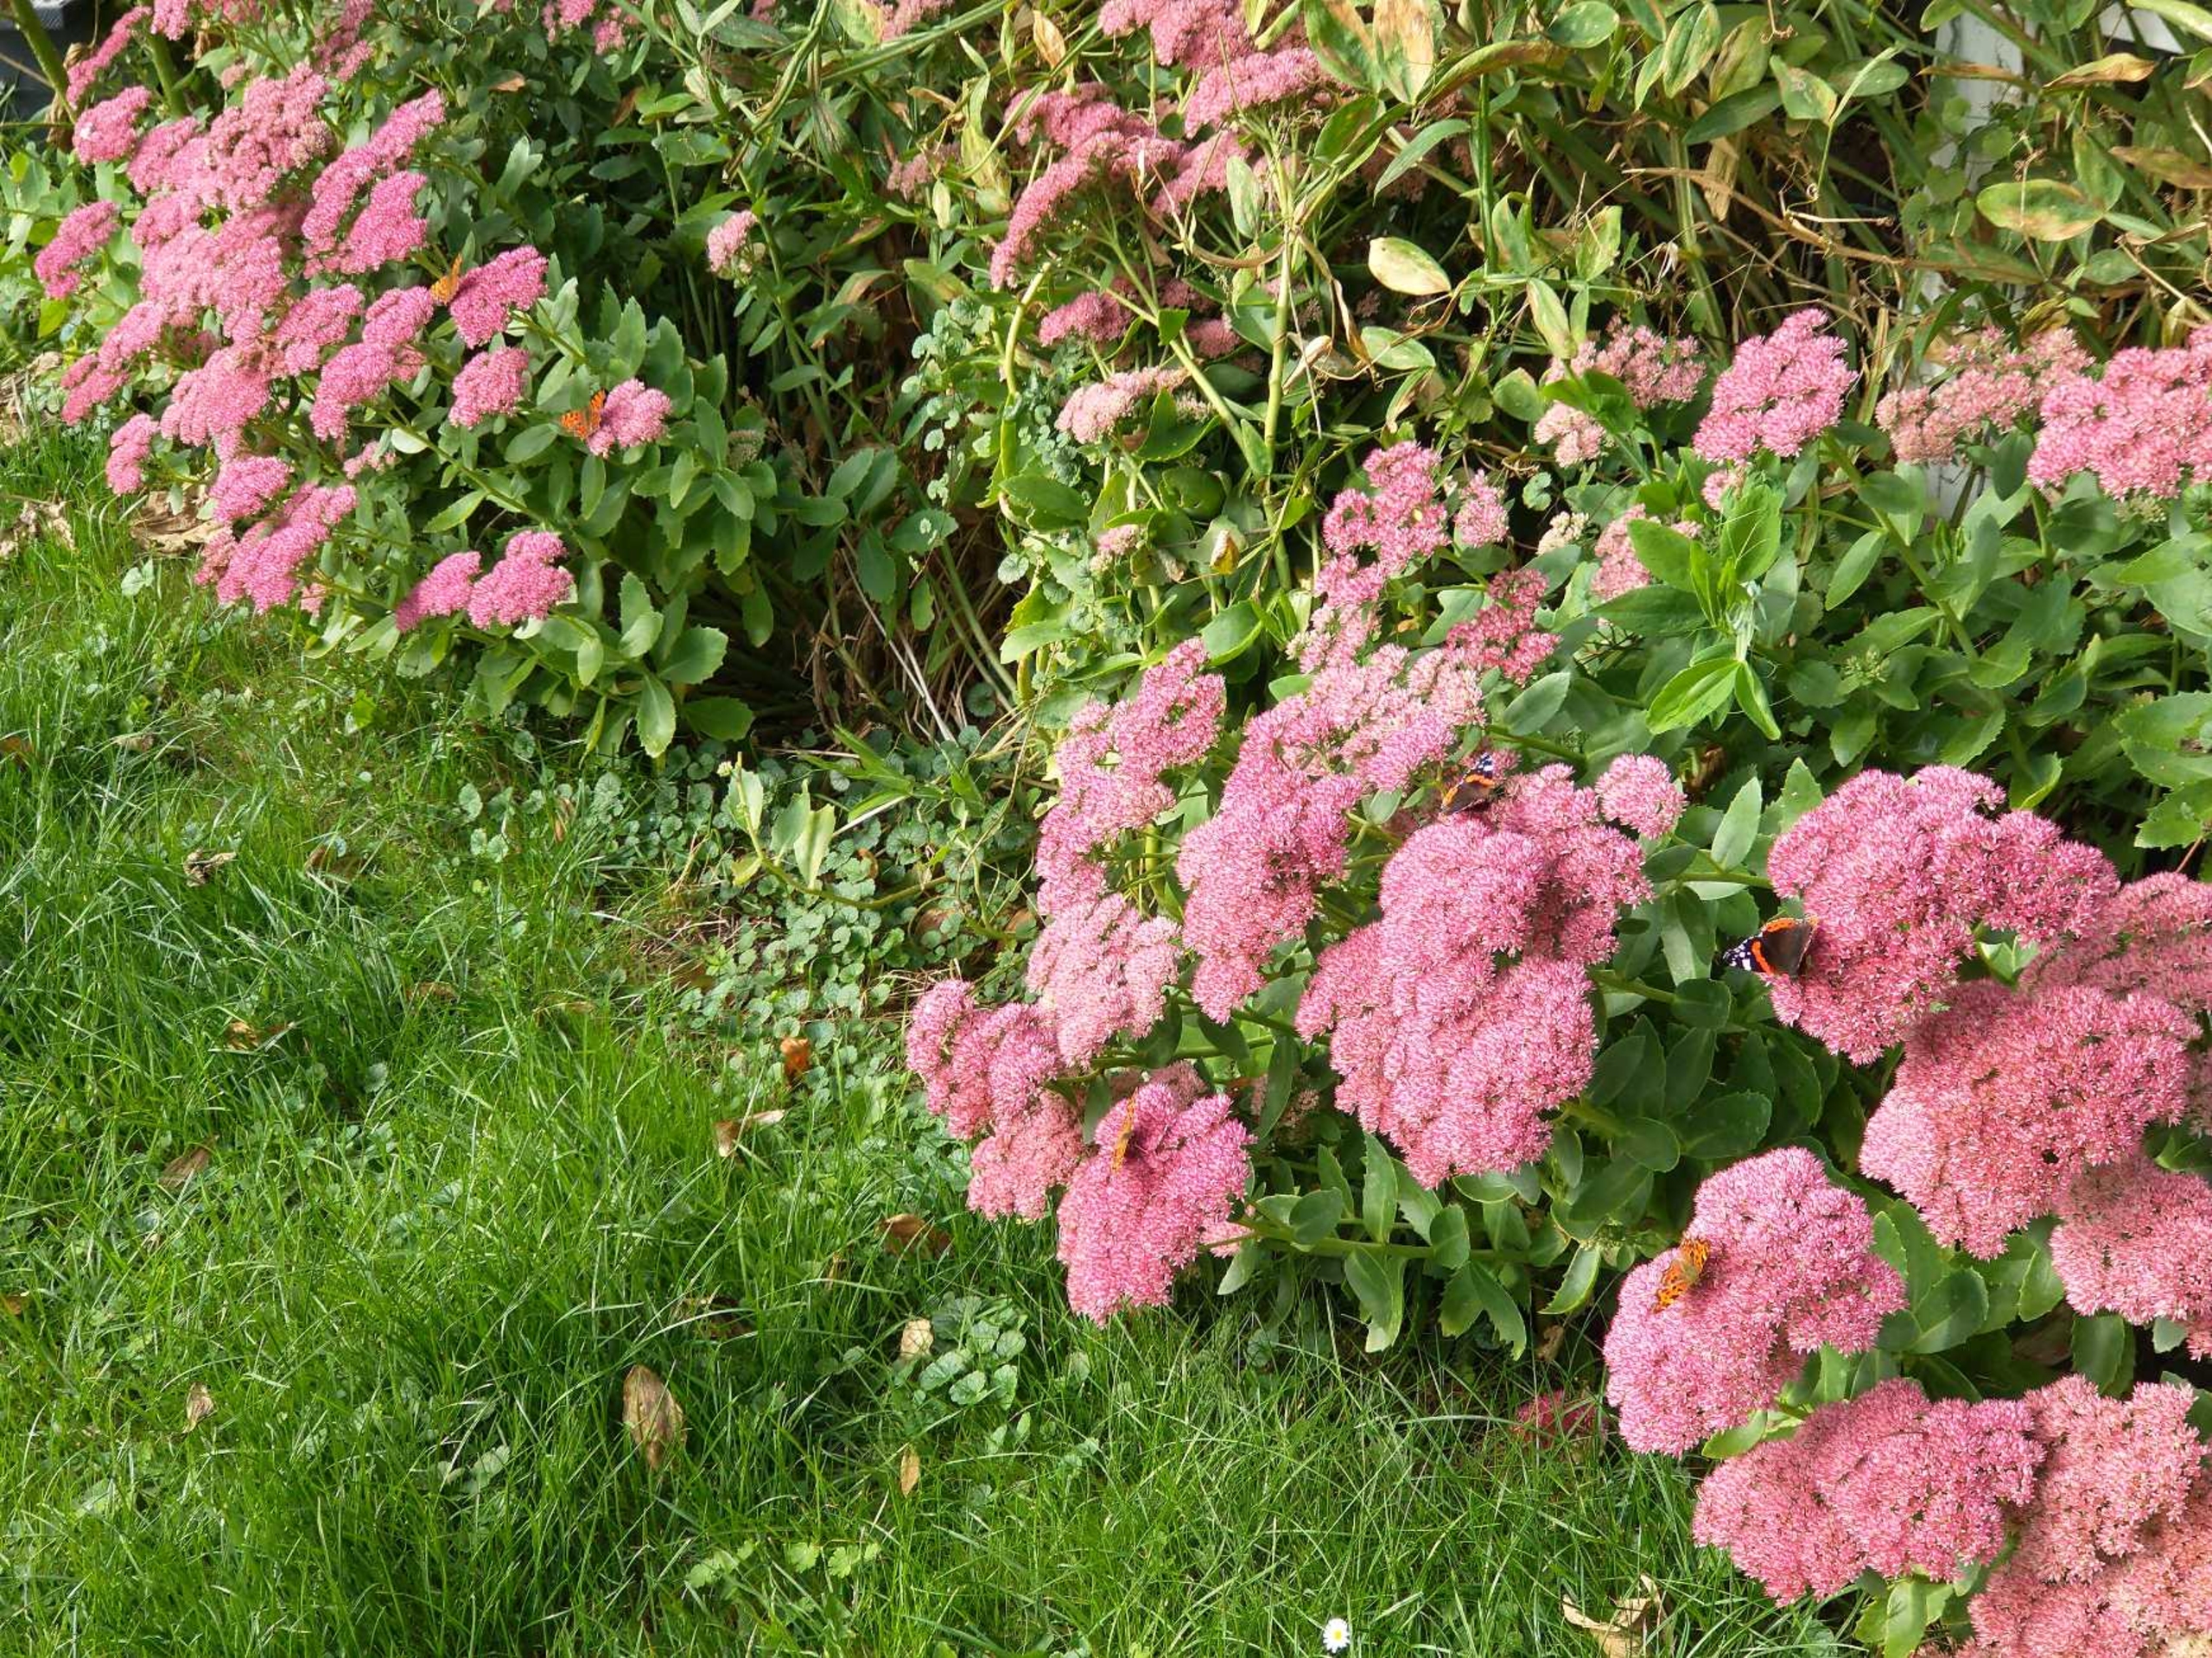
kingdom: Animalia
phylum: Arthropoda
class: Insecta
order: Lepidoptera
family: Nymphalidae
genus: Polygonia
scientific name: Polygonia c-album
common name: Det hvide C
